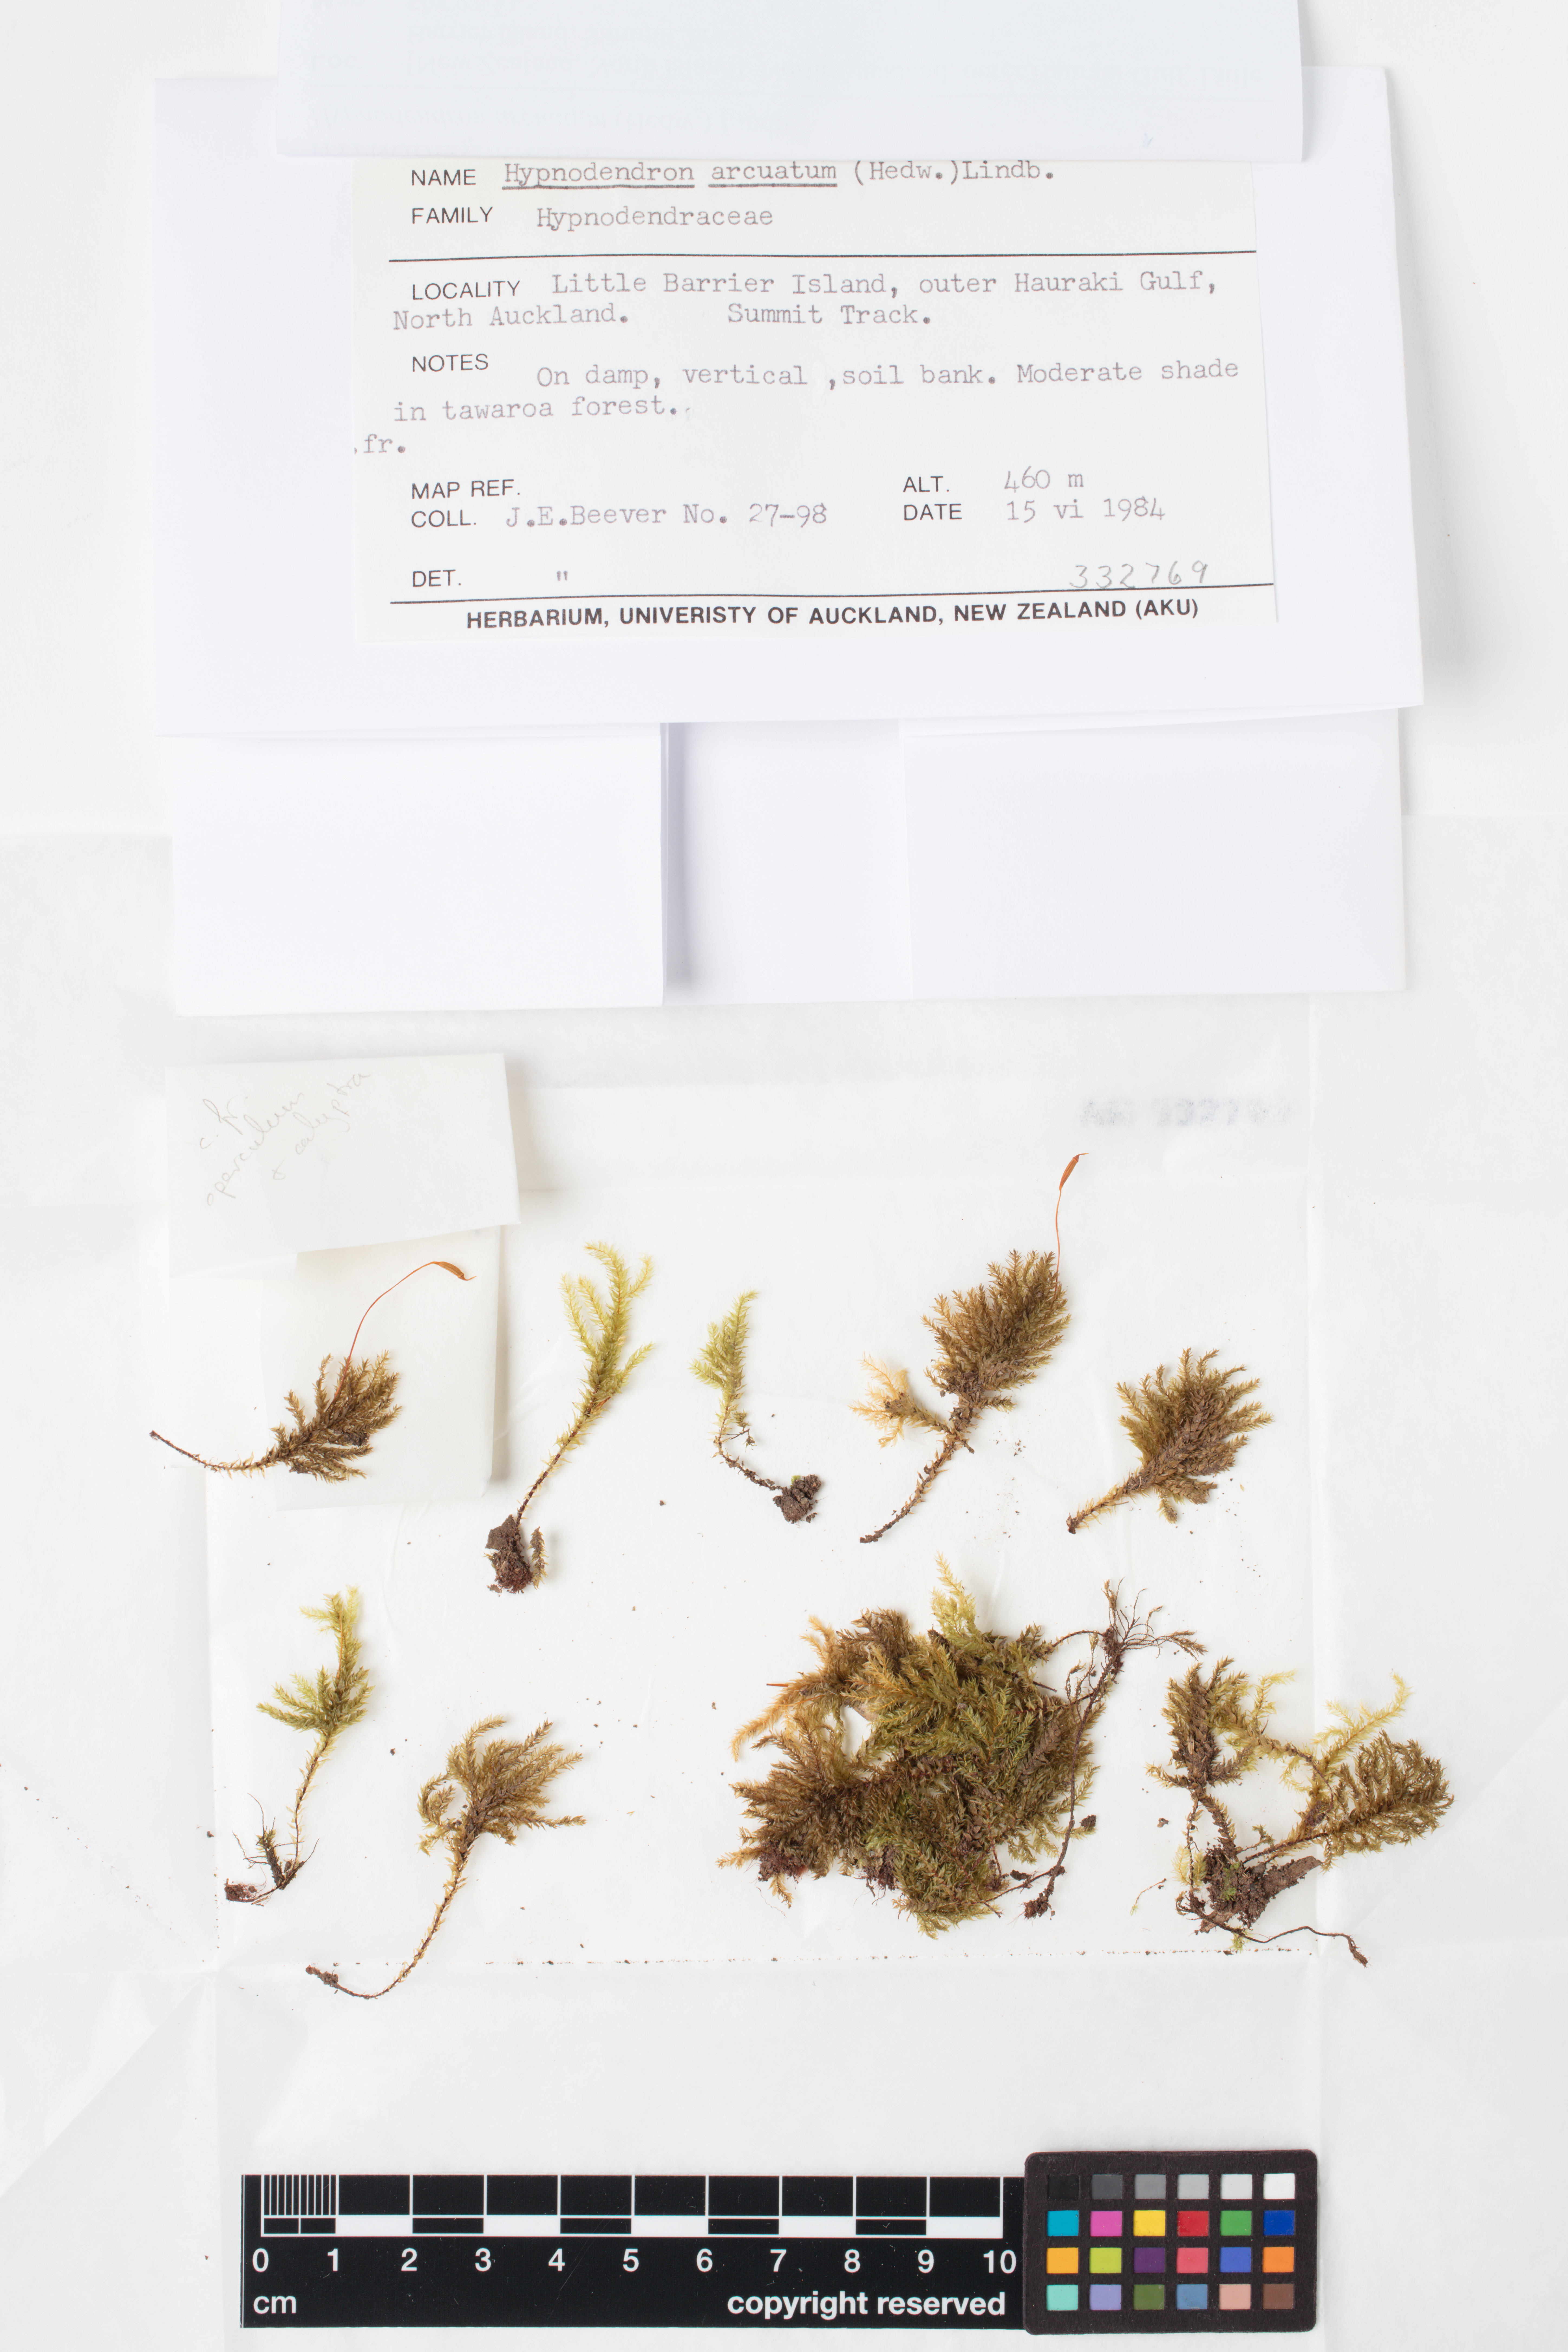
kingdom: Plantae
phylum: Bryophyta
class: Bryopsida
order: Hypnodendrales
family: Spiridentaceae
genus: Hypnodendron
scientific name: Hypnodendron arcuatum
